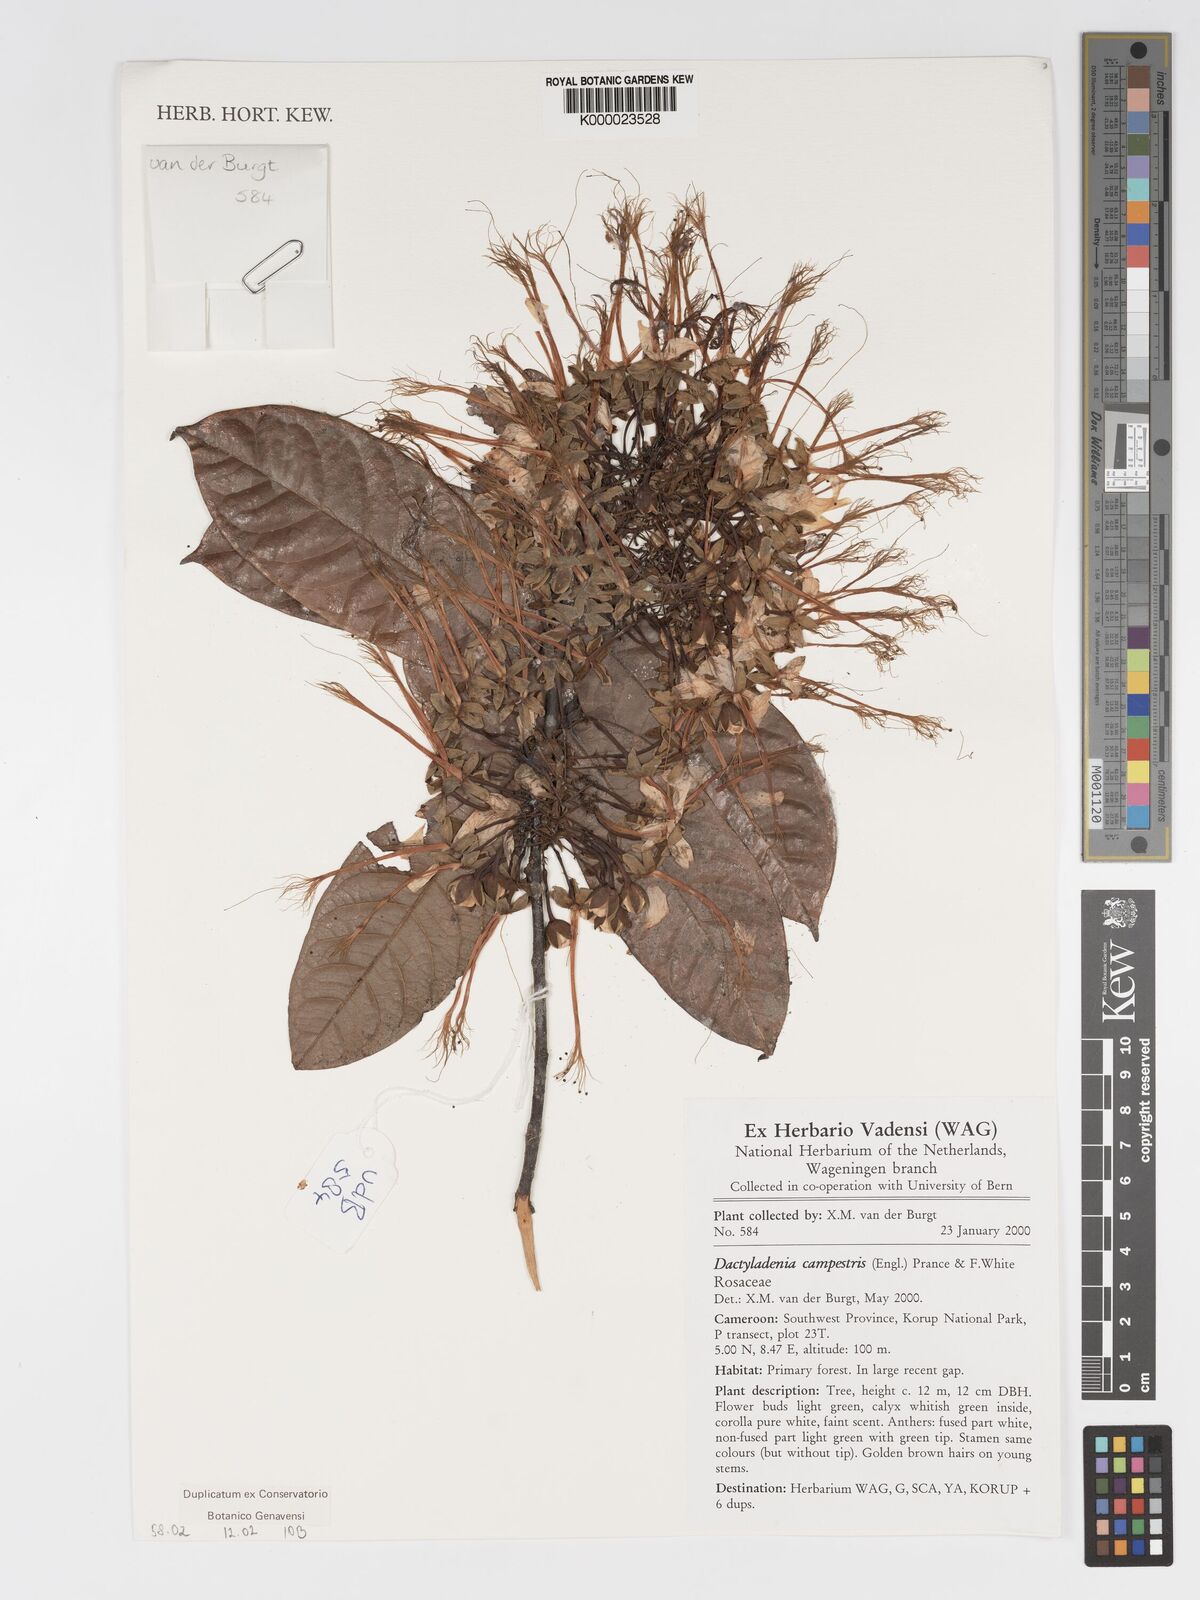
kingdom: Plantae
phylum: Tracheophyta
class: Magnoliopsida
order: Malpighiales
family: Chrysobalanaceae
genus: Dactyladenia
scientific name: Dactyladenia campestris
